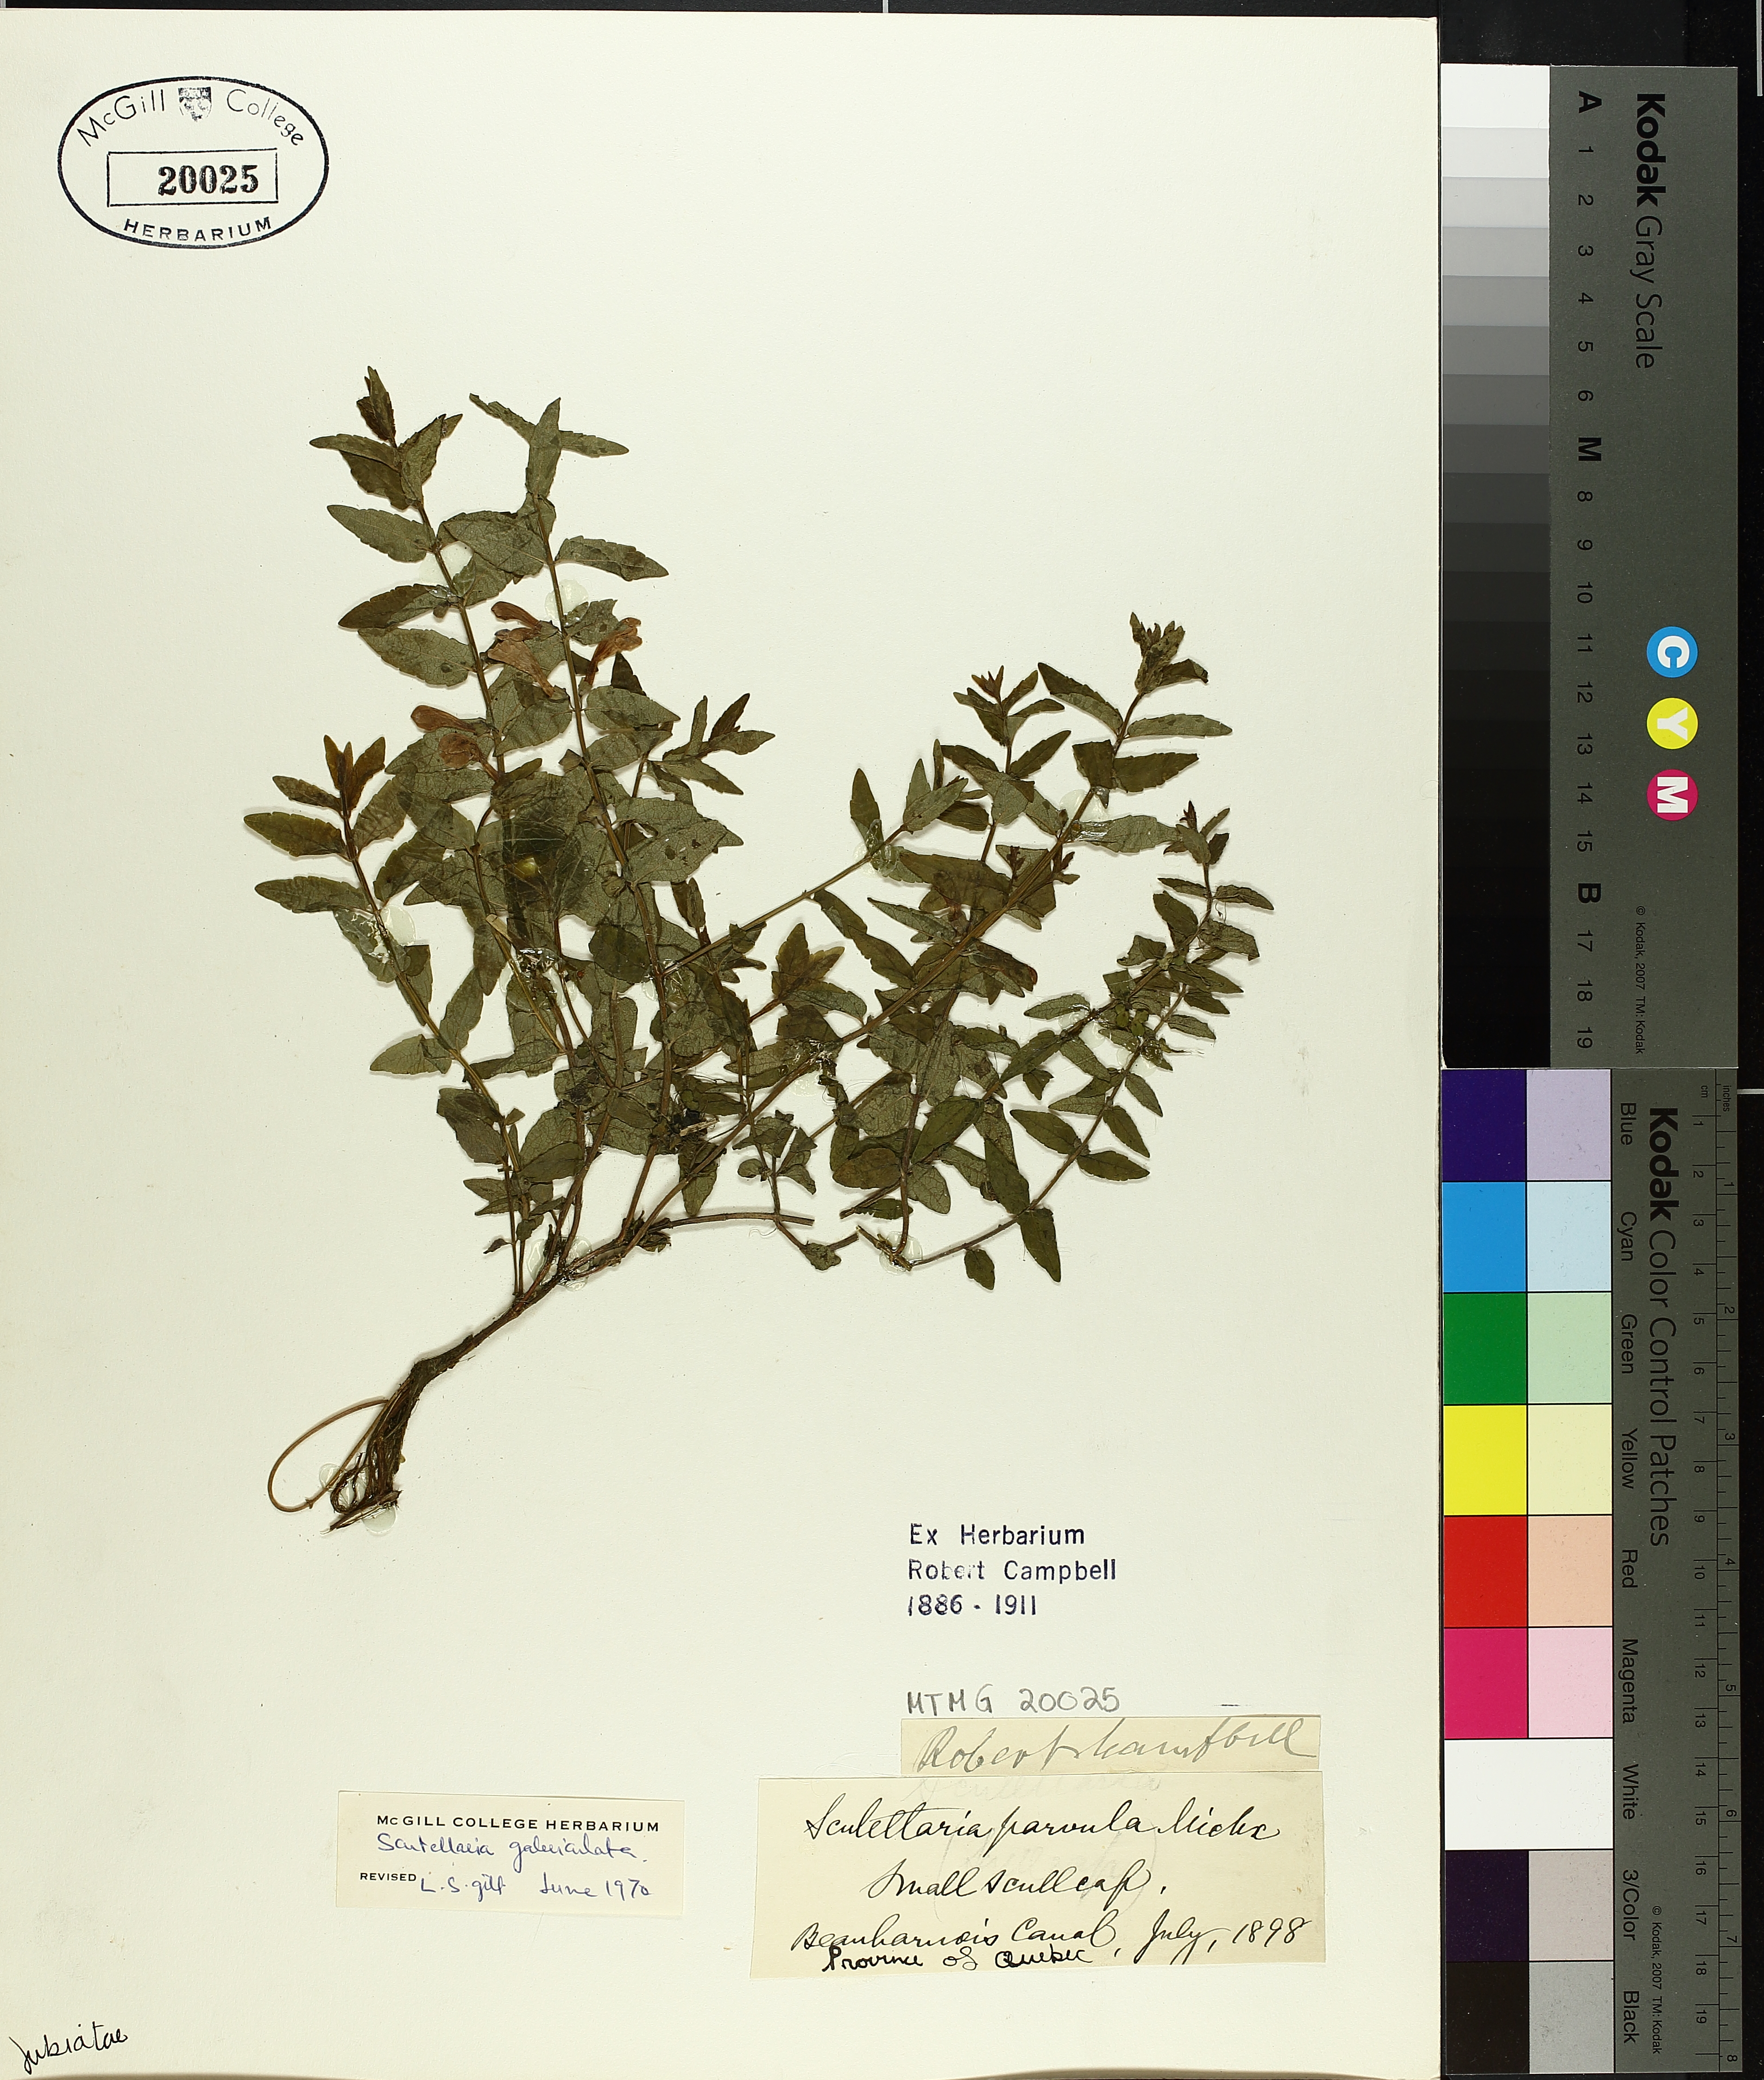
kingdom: Plantae
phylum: Tracheophyta
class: Magnoliopsida
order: Lamiales
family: Lamiaceae
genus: Scutellaria
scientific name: Scutellaria galericulata
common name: Skullcap
